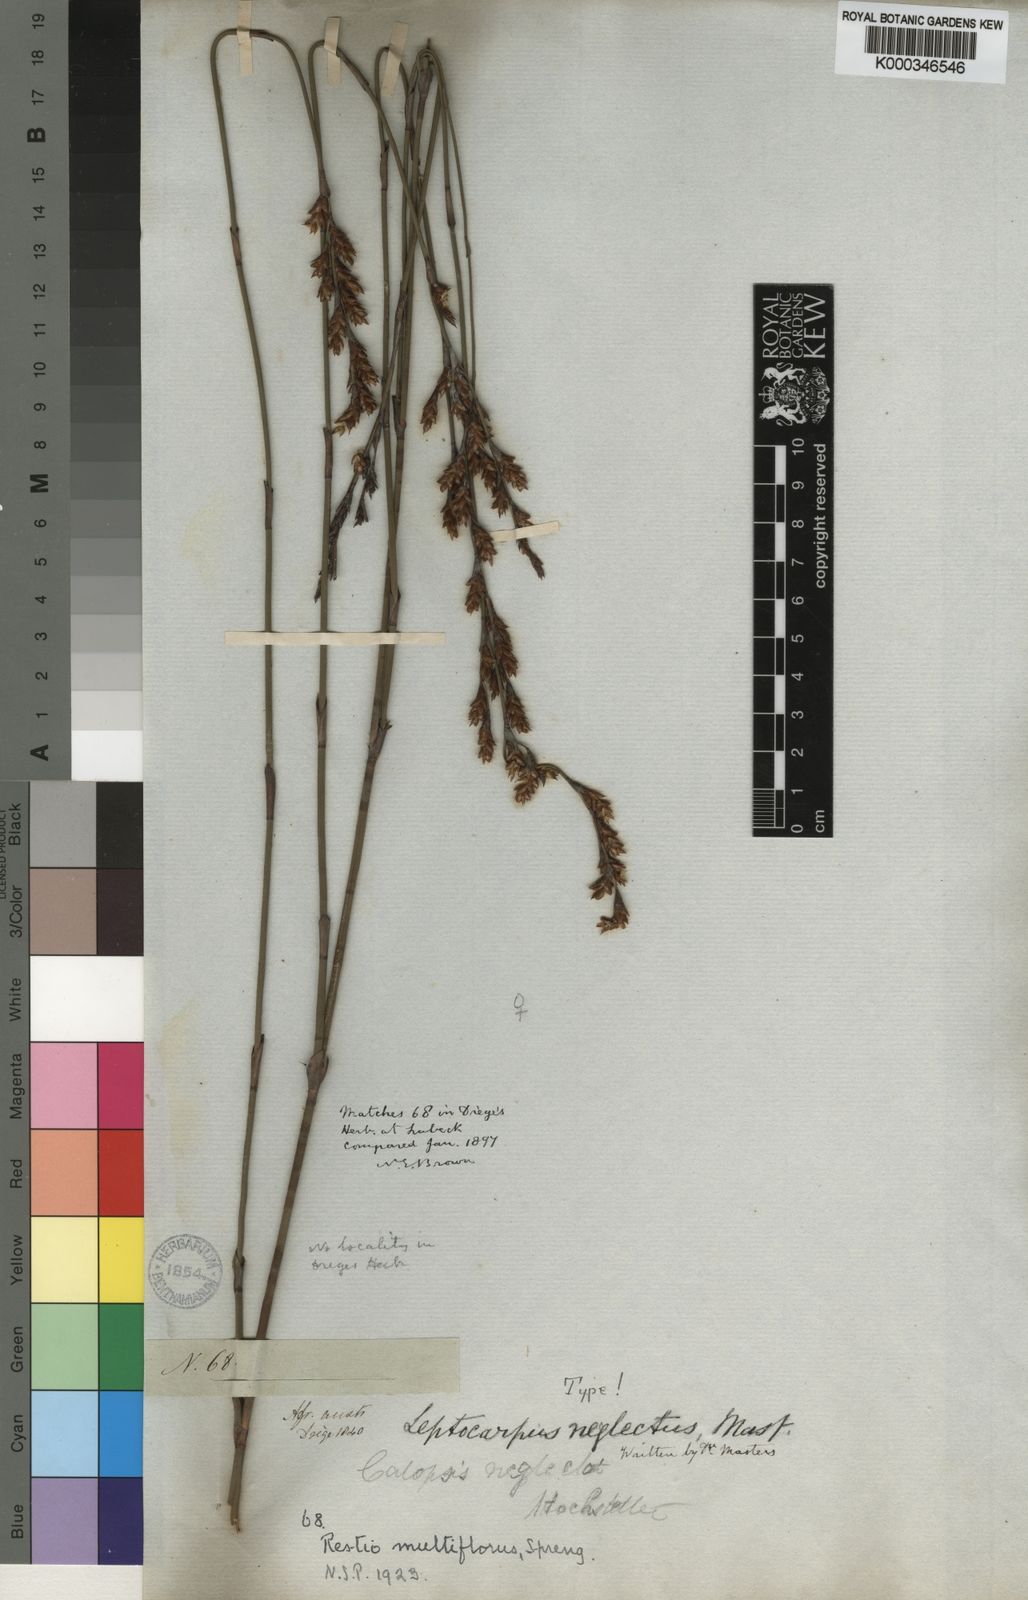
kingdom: Plantae
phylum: Tracheophyta
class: Liliopsida
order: Poales
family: Restionaceae
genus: Restio
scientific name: Restio multiflorus
